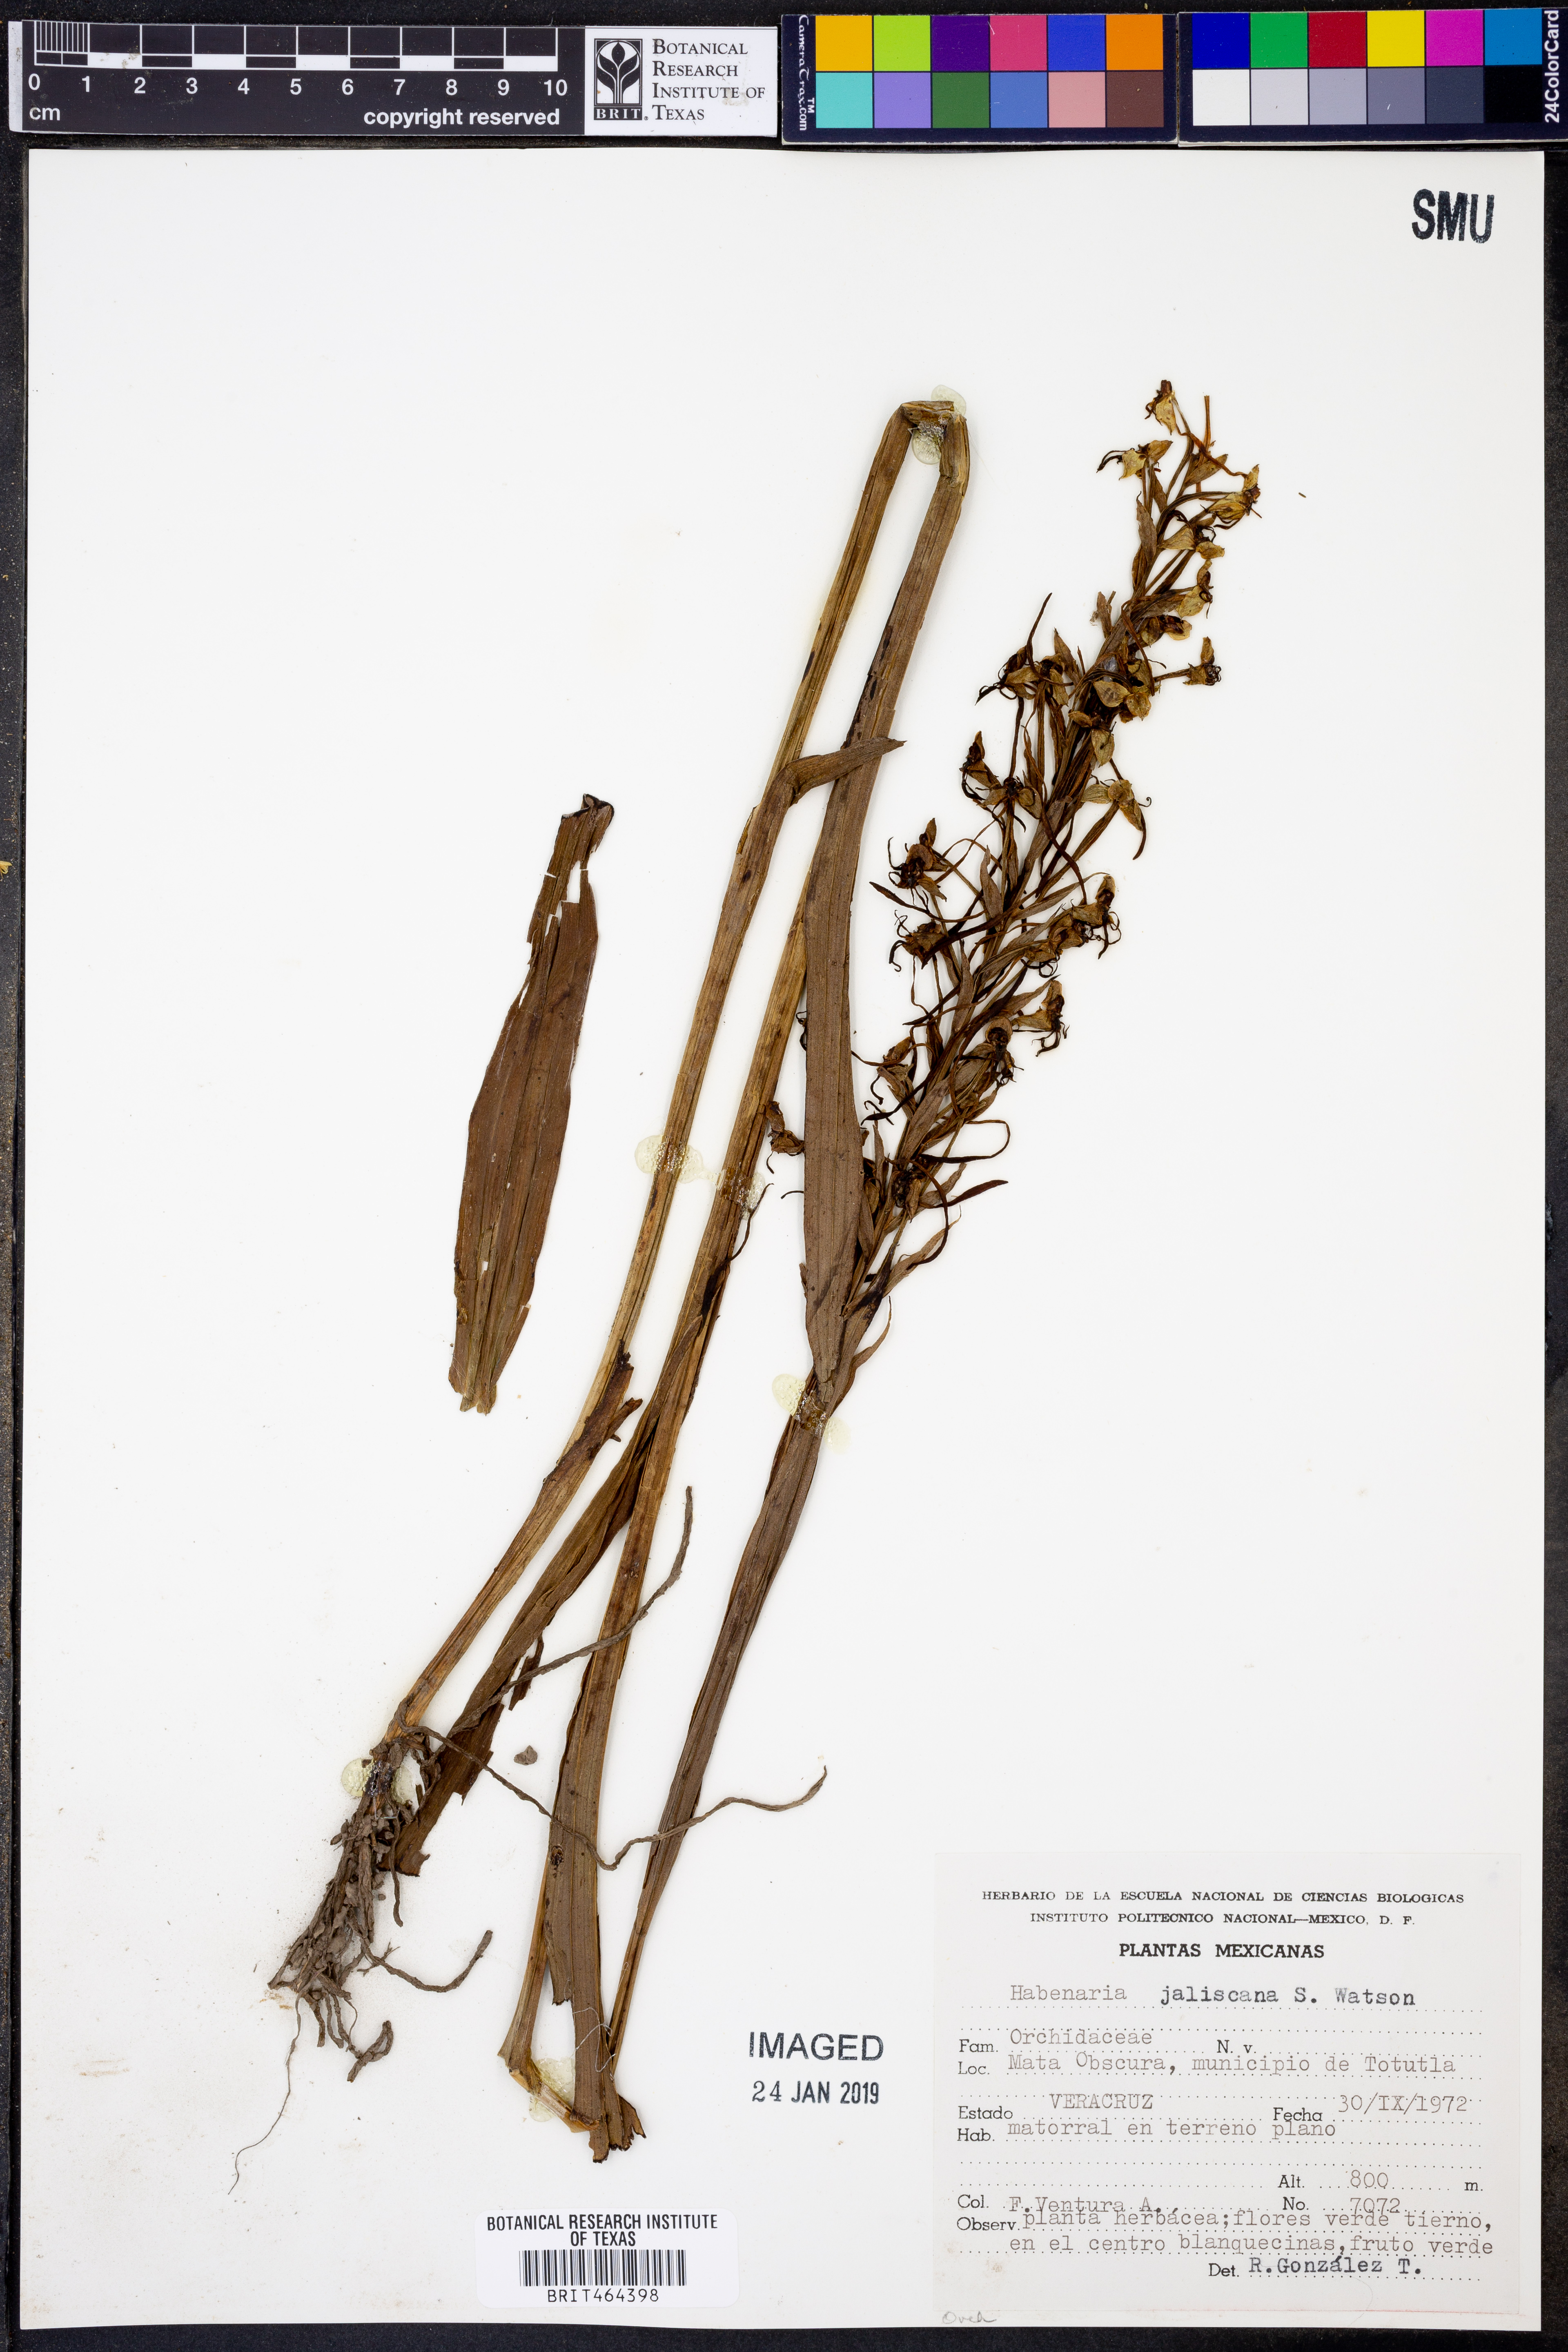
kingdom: Plantae
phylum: Tracheophyta
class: Liliopsida
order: Asparagales
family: Orchidaceae
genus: Habenaria
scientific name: Habenaria jaliscana
